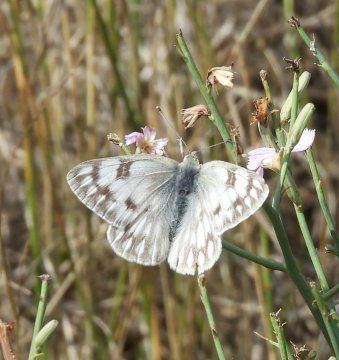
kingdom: Animalia
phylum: Arthropoda
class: Insecta
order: Lepidoptera
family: Pieridae
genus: Pontia
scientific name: Pontia occidentalis
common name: Western White
